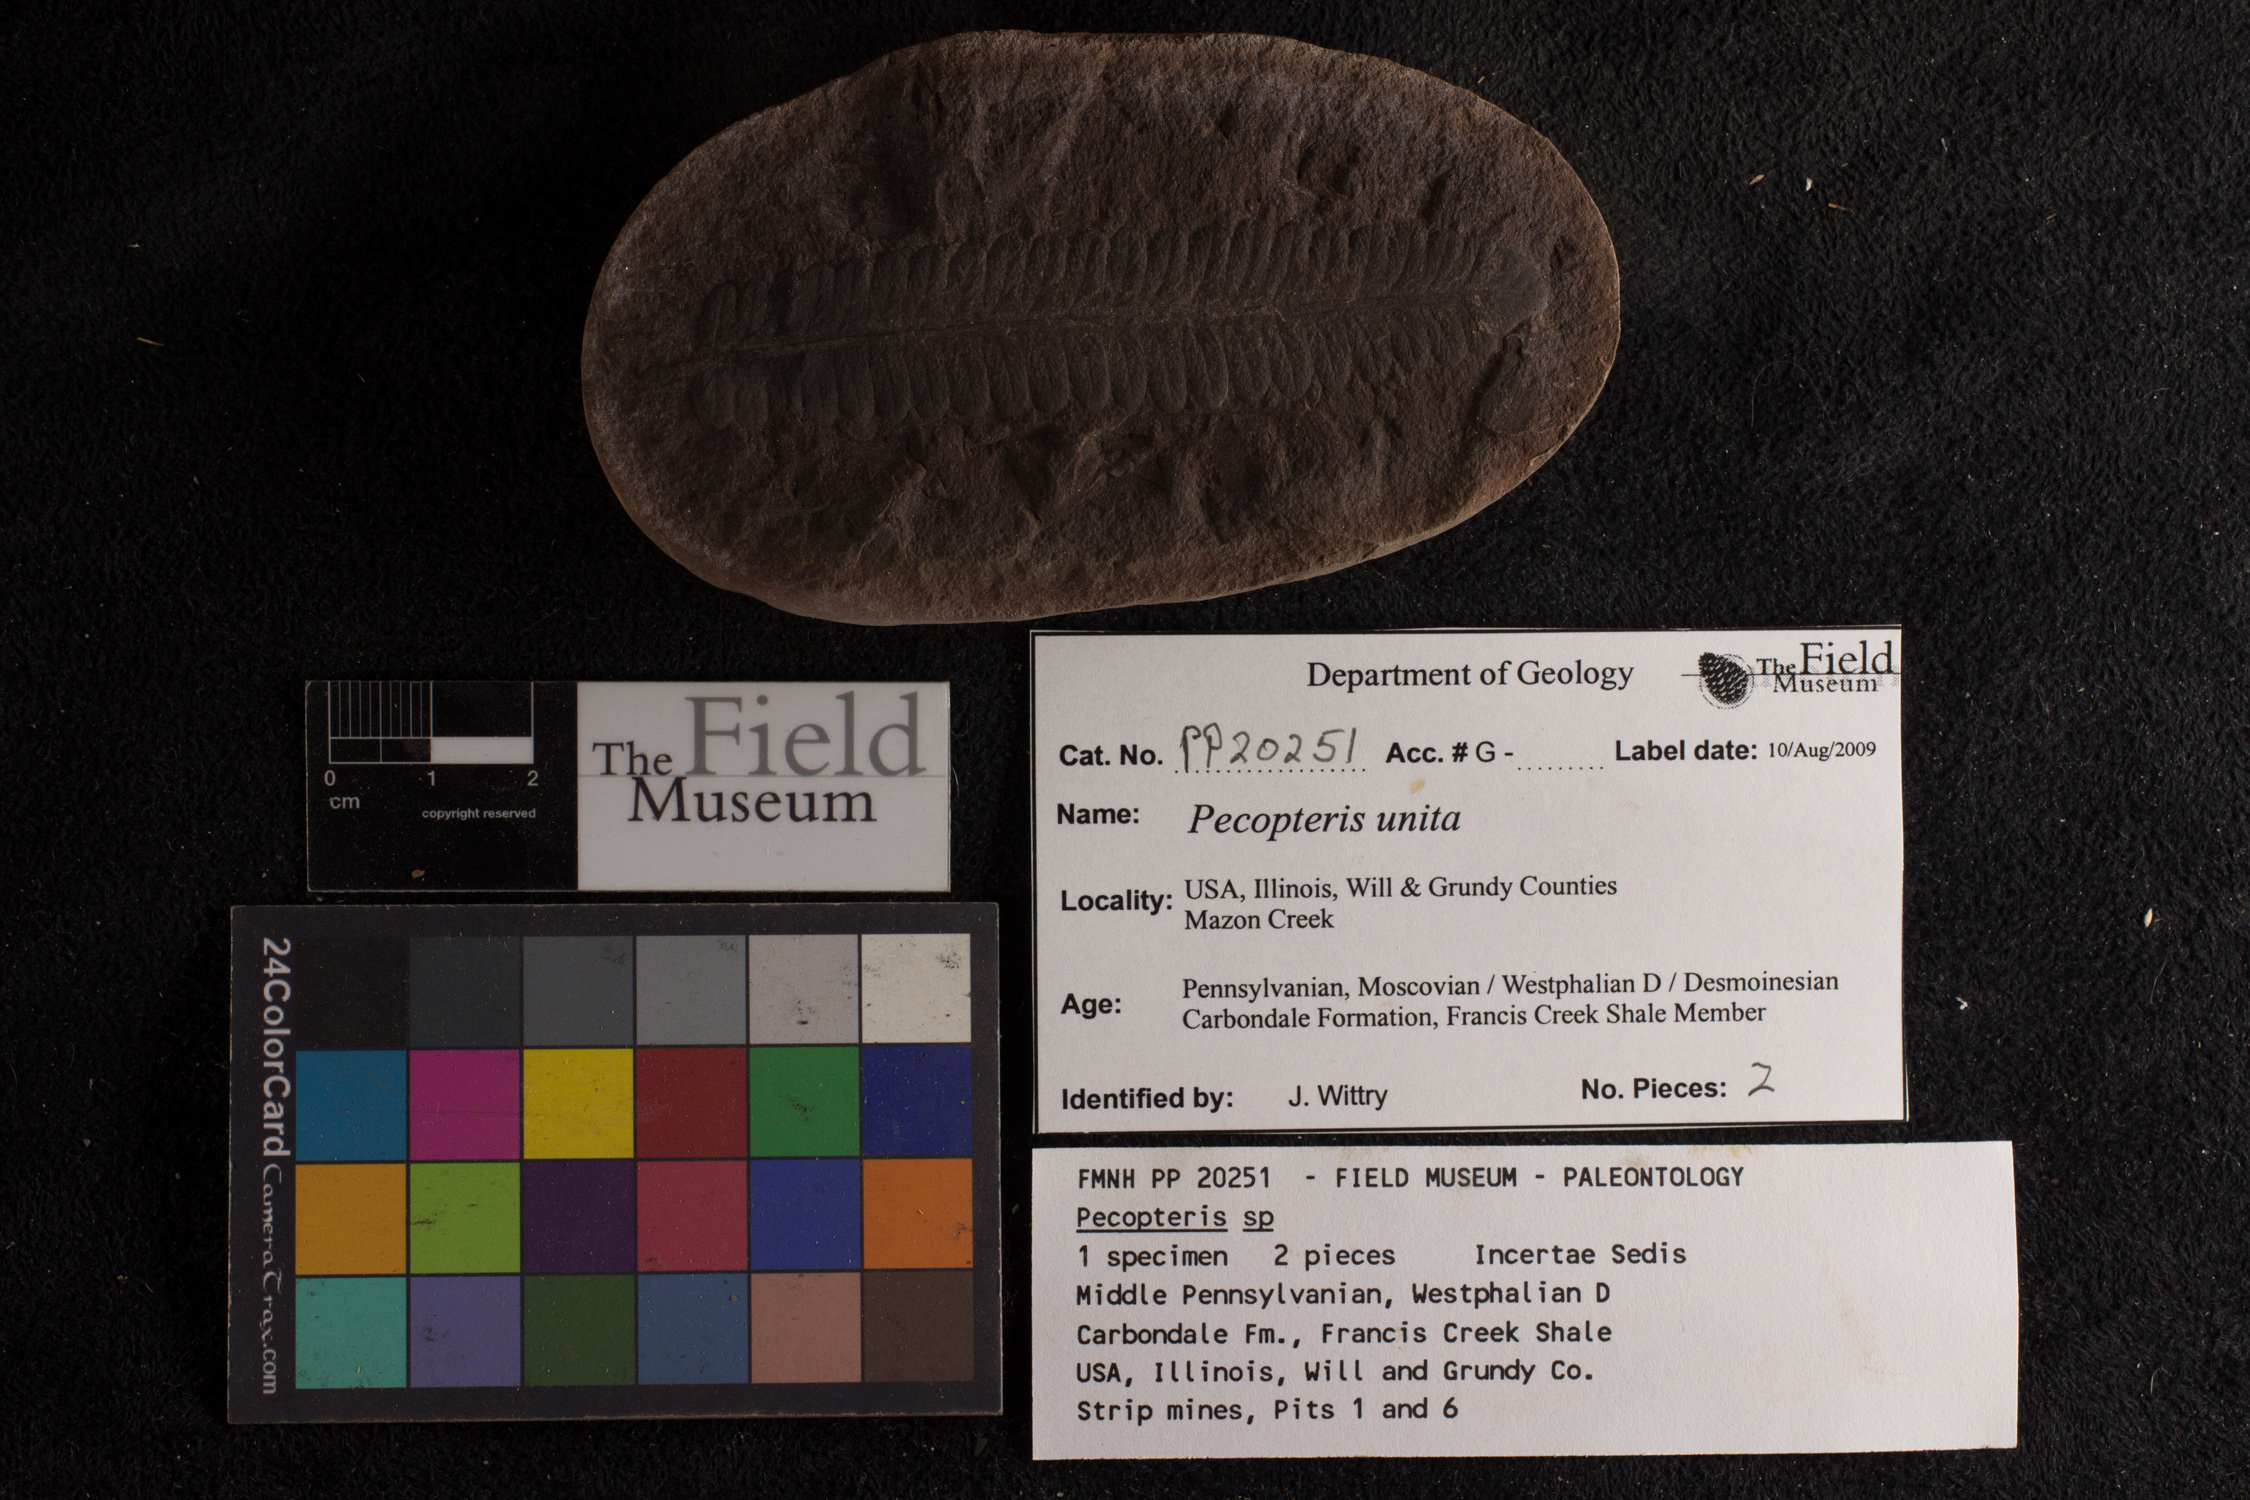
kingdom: Plantae
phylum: Tracheophyta
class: Polypodiopsida
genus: Diplazites
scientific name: Diplazites
